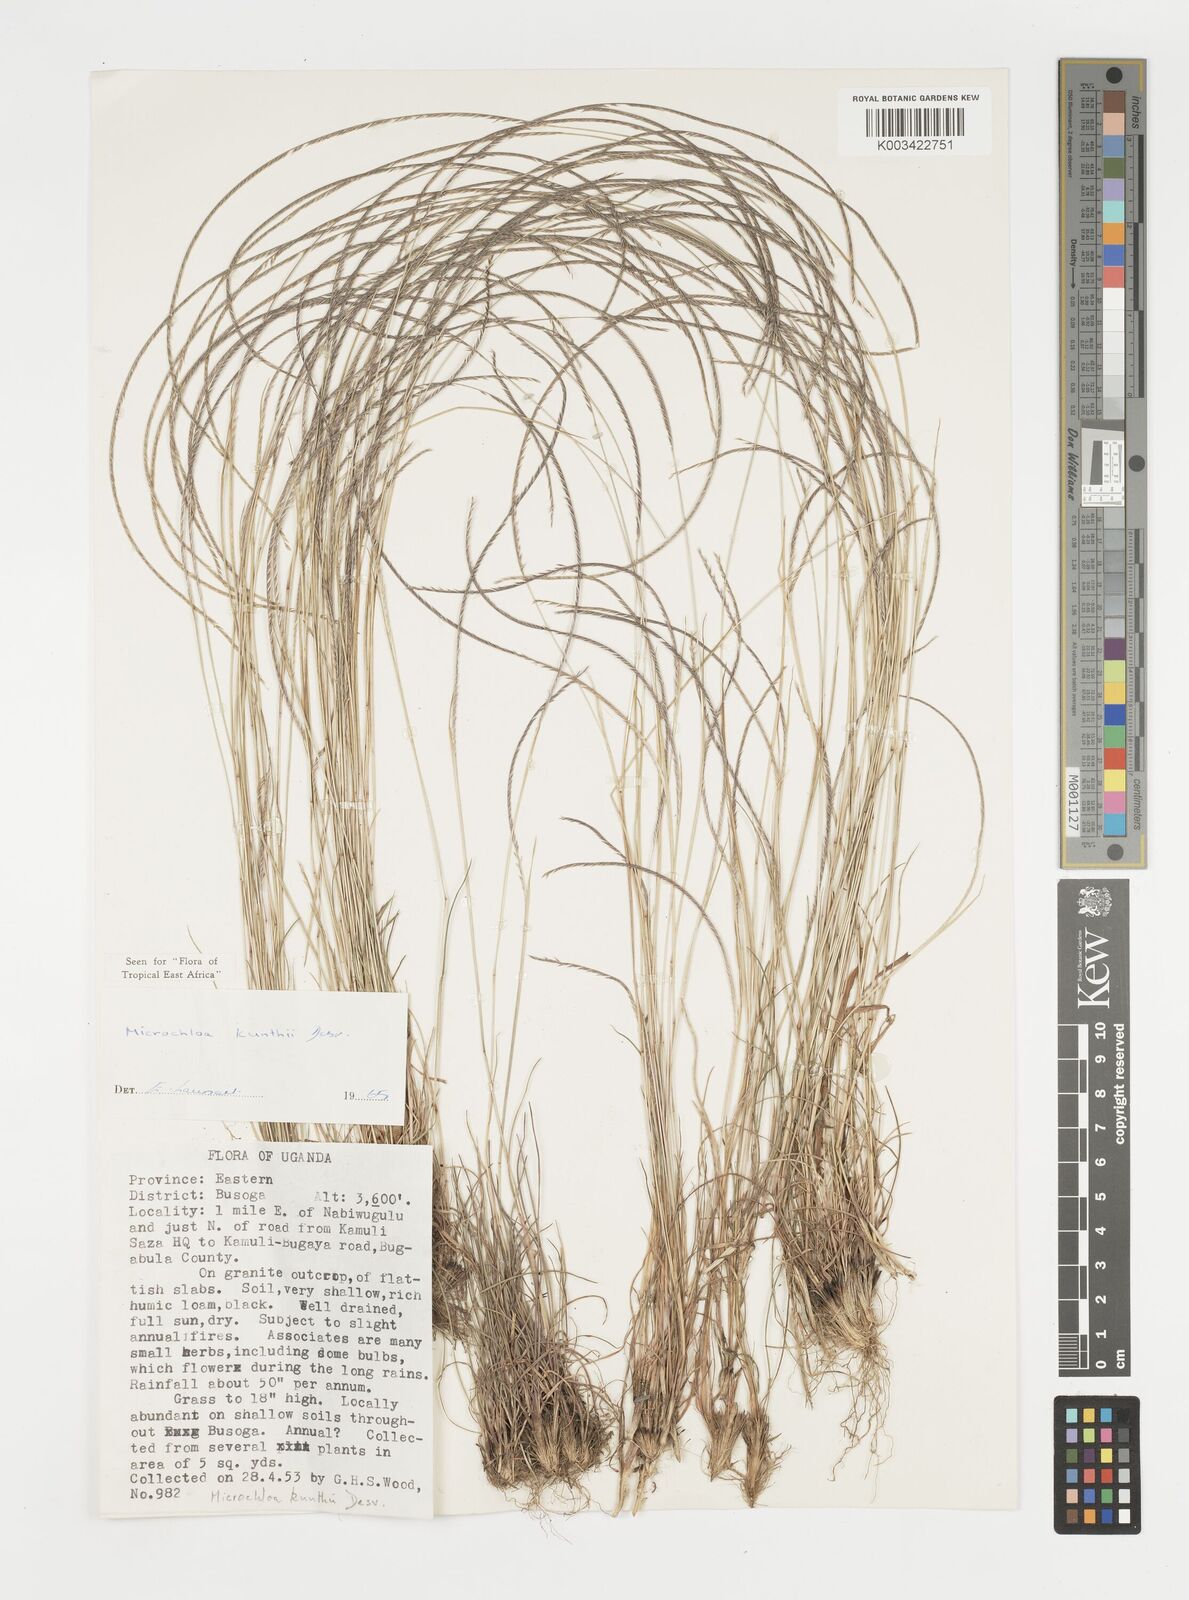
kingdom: Plantae
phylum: Tracheophyta
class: Liliopsida
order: Poales
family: Poaceae
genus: Microchloa
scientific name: Microchloa kunthii
